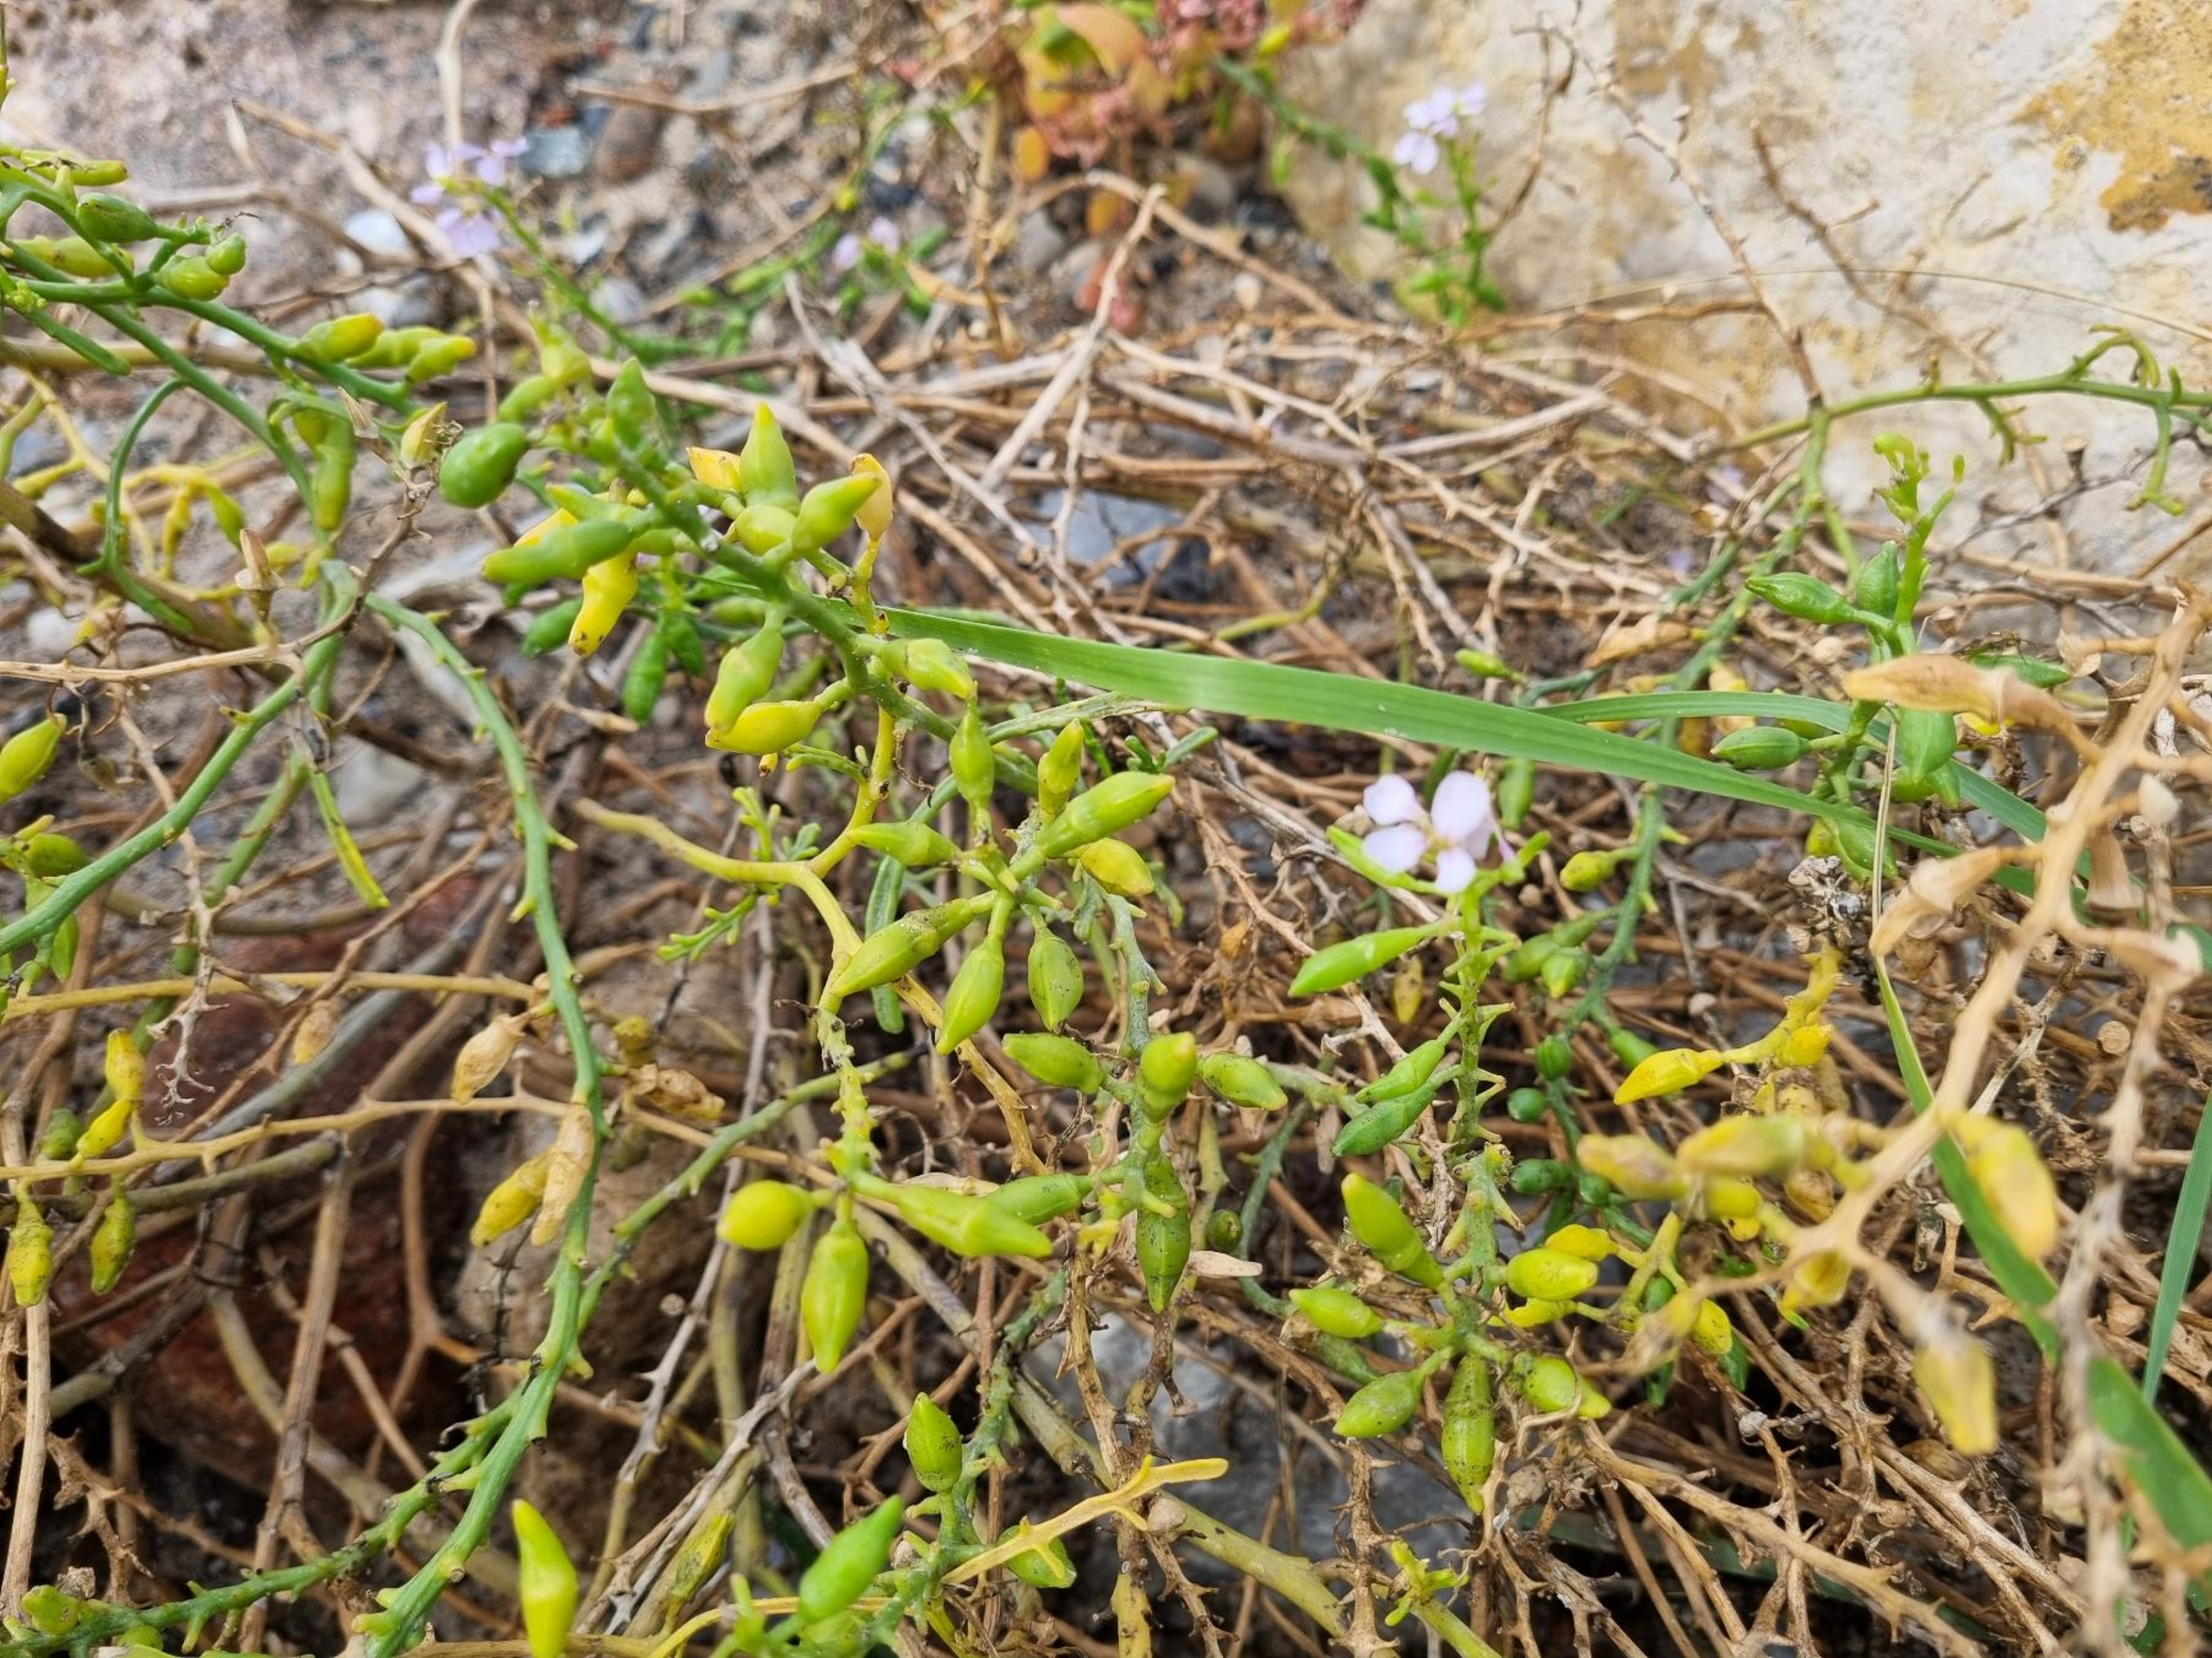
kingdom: Plantae
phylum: Tracheophyta
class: Magnoliopsida
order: Brassicales
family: Brassicaceae
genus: Cakile
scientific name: Cakile maritima
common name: Strandsennep
